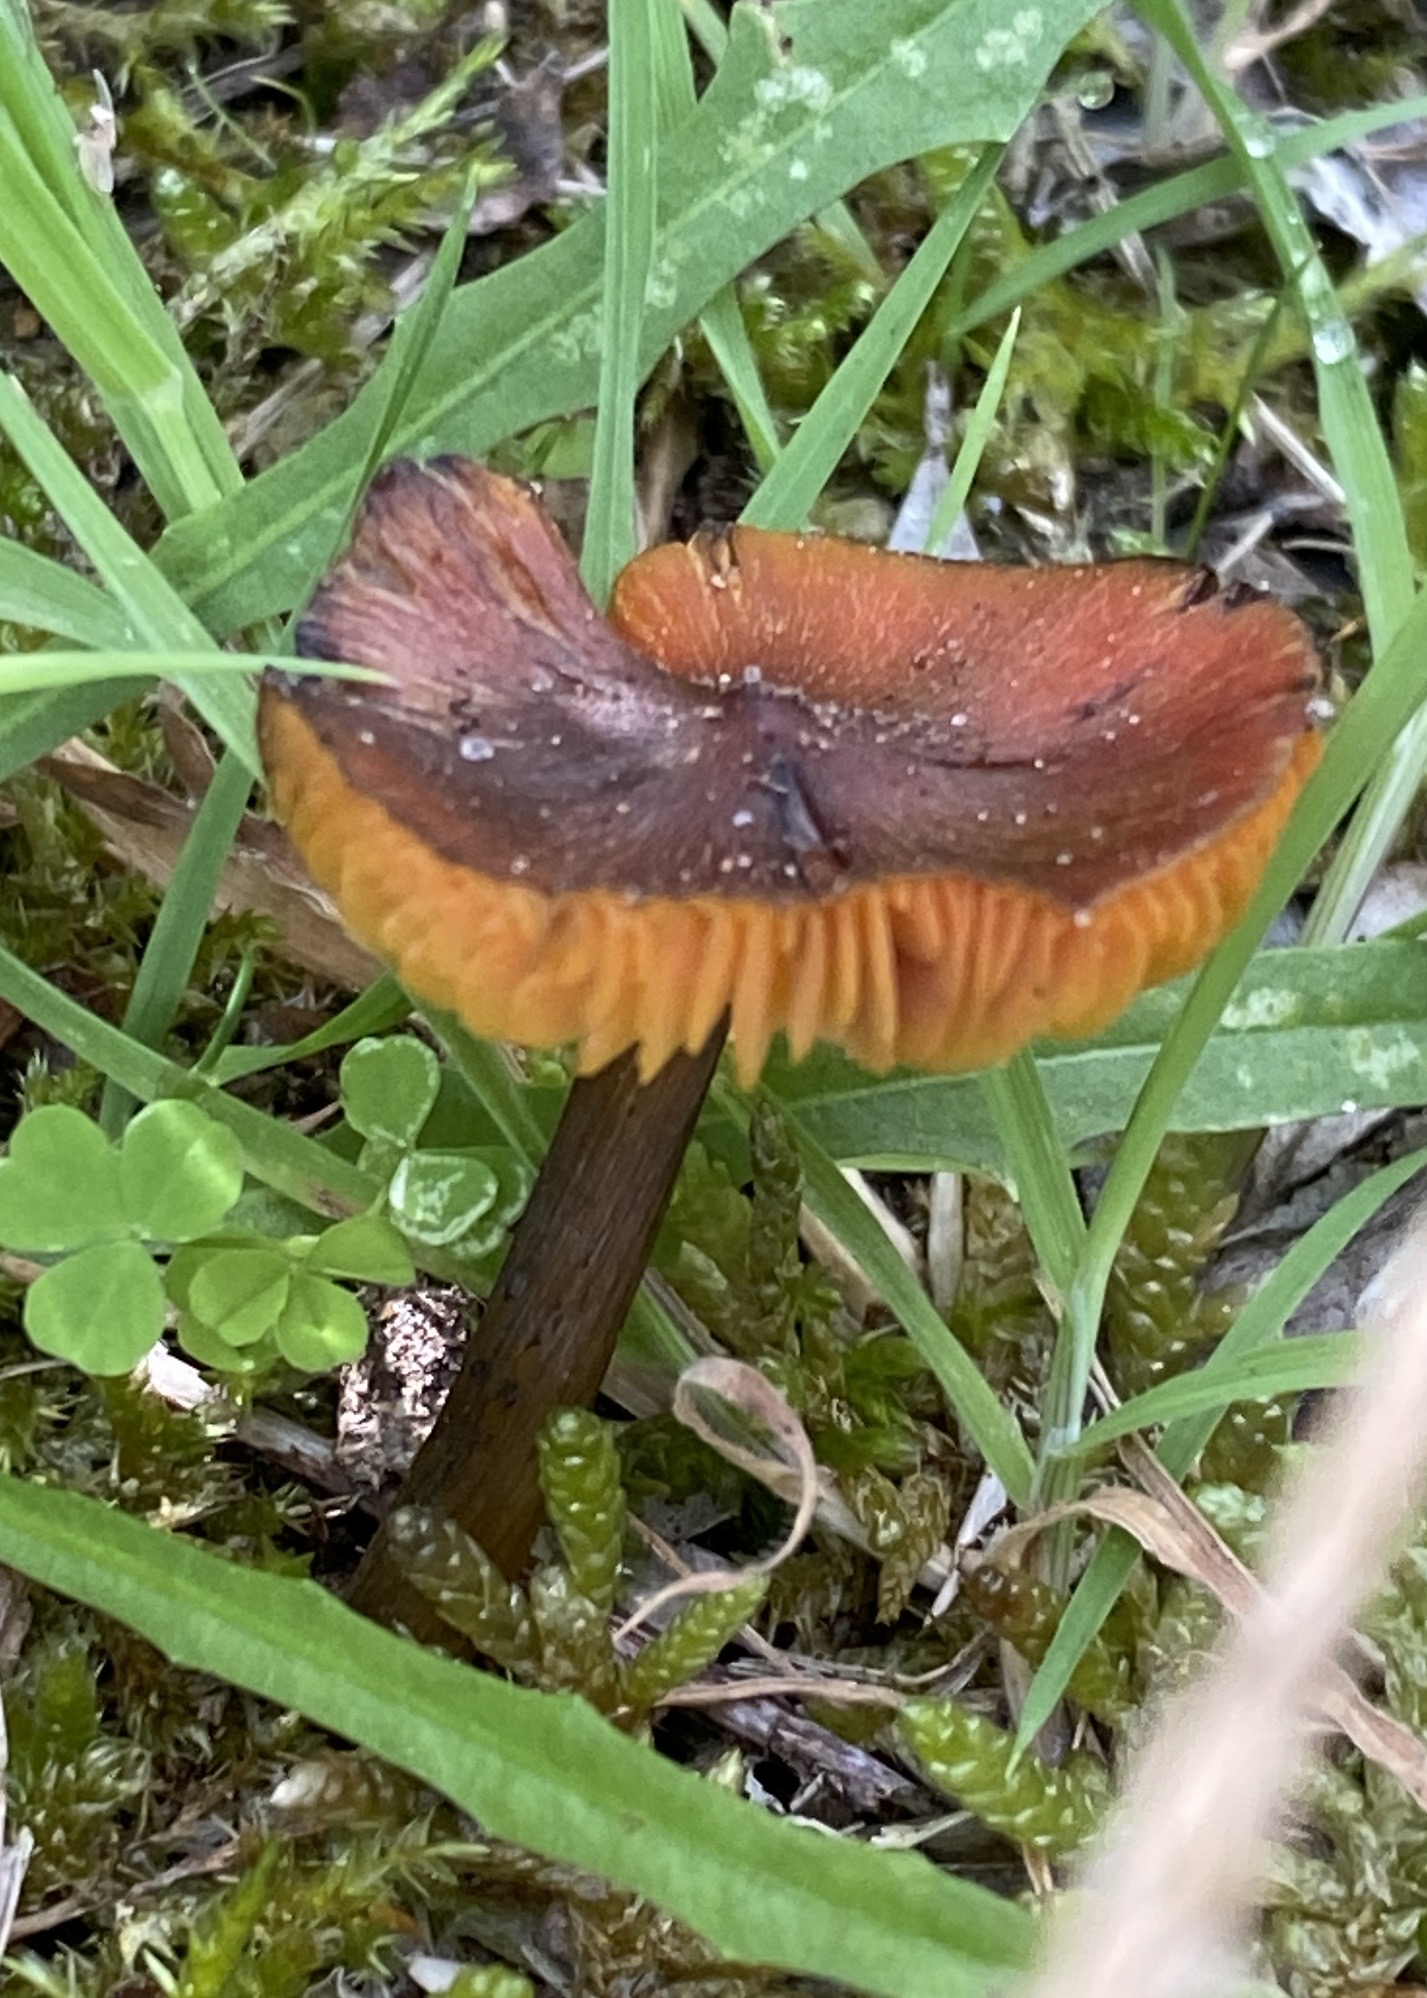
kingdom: Fungi
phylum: Basidiomycota
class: Agaricomycetes
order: Agaricales
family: Hygrophoraceae
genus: Hygrocybe
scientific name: Hygrocybe conica
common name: kegle-vokshat
